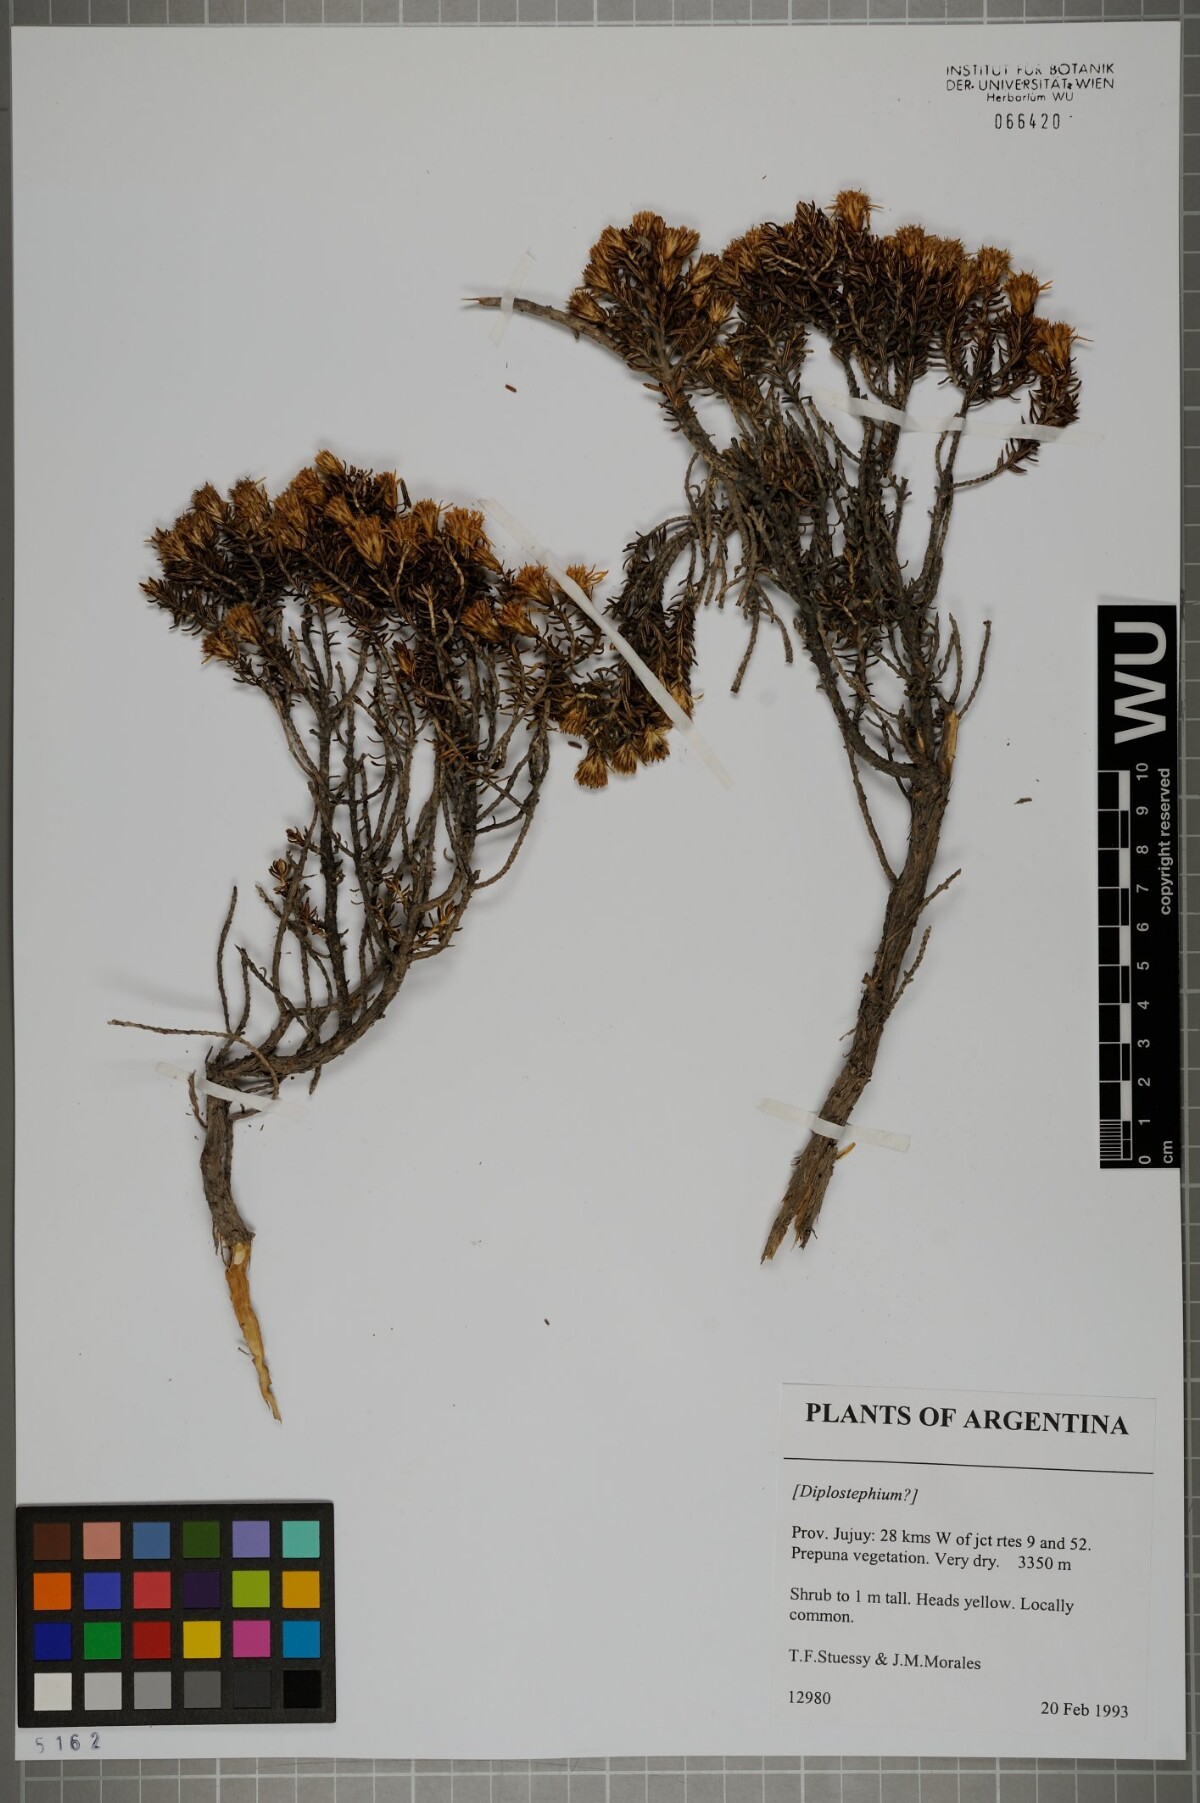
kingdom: Plantae
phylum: Tracheophyta
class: Magnoliopsida
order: Asterales
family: Asteraceae
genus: Diplostephium
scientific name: Diplostephium
